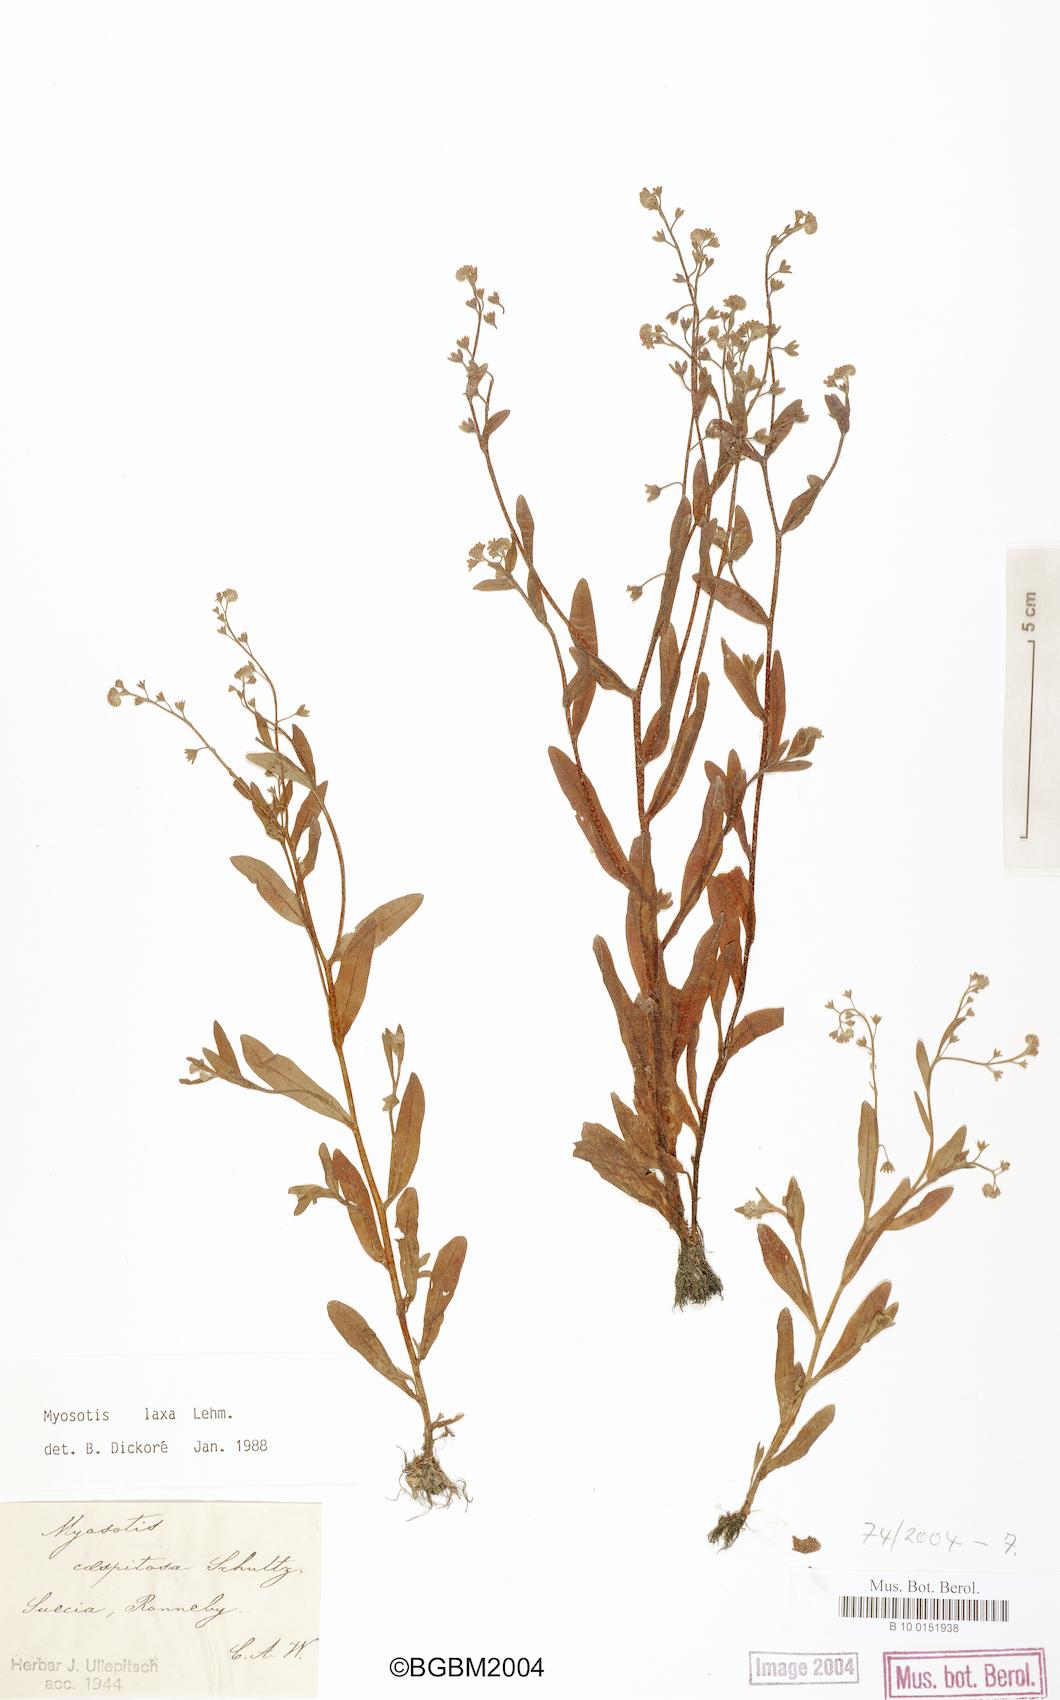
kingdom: Plantae
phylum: Tracheophyta
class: Magnoliopsida
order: Boraginales
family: Boraginaceae
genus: Myosotis
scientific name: Myosotis laxa
